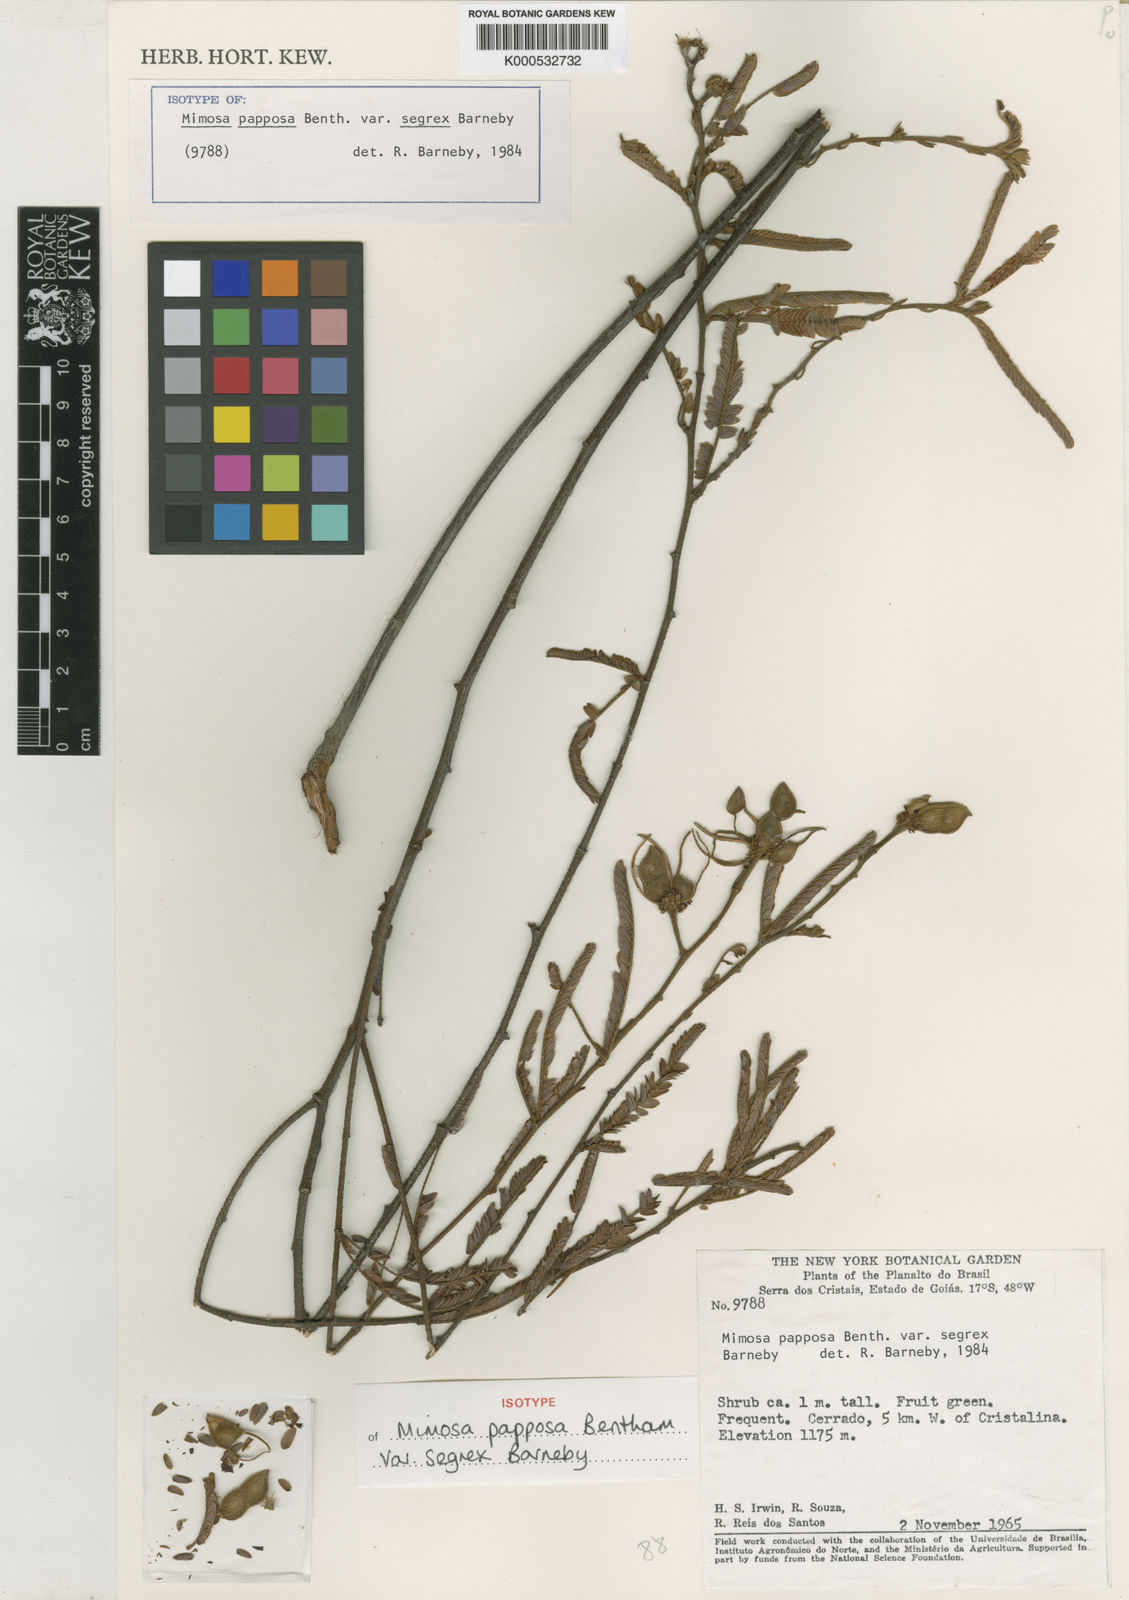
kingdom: Plantae
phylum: Tracheophyta
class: Magnoliopsida
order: Fabales
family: Fabaceae
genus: Mimosa
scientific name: Mimosa papposa
